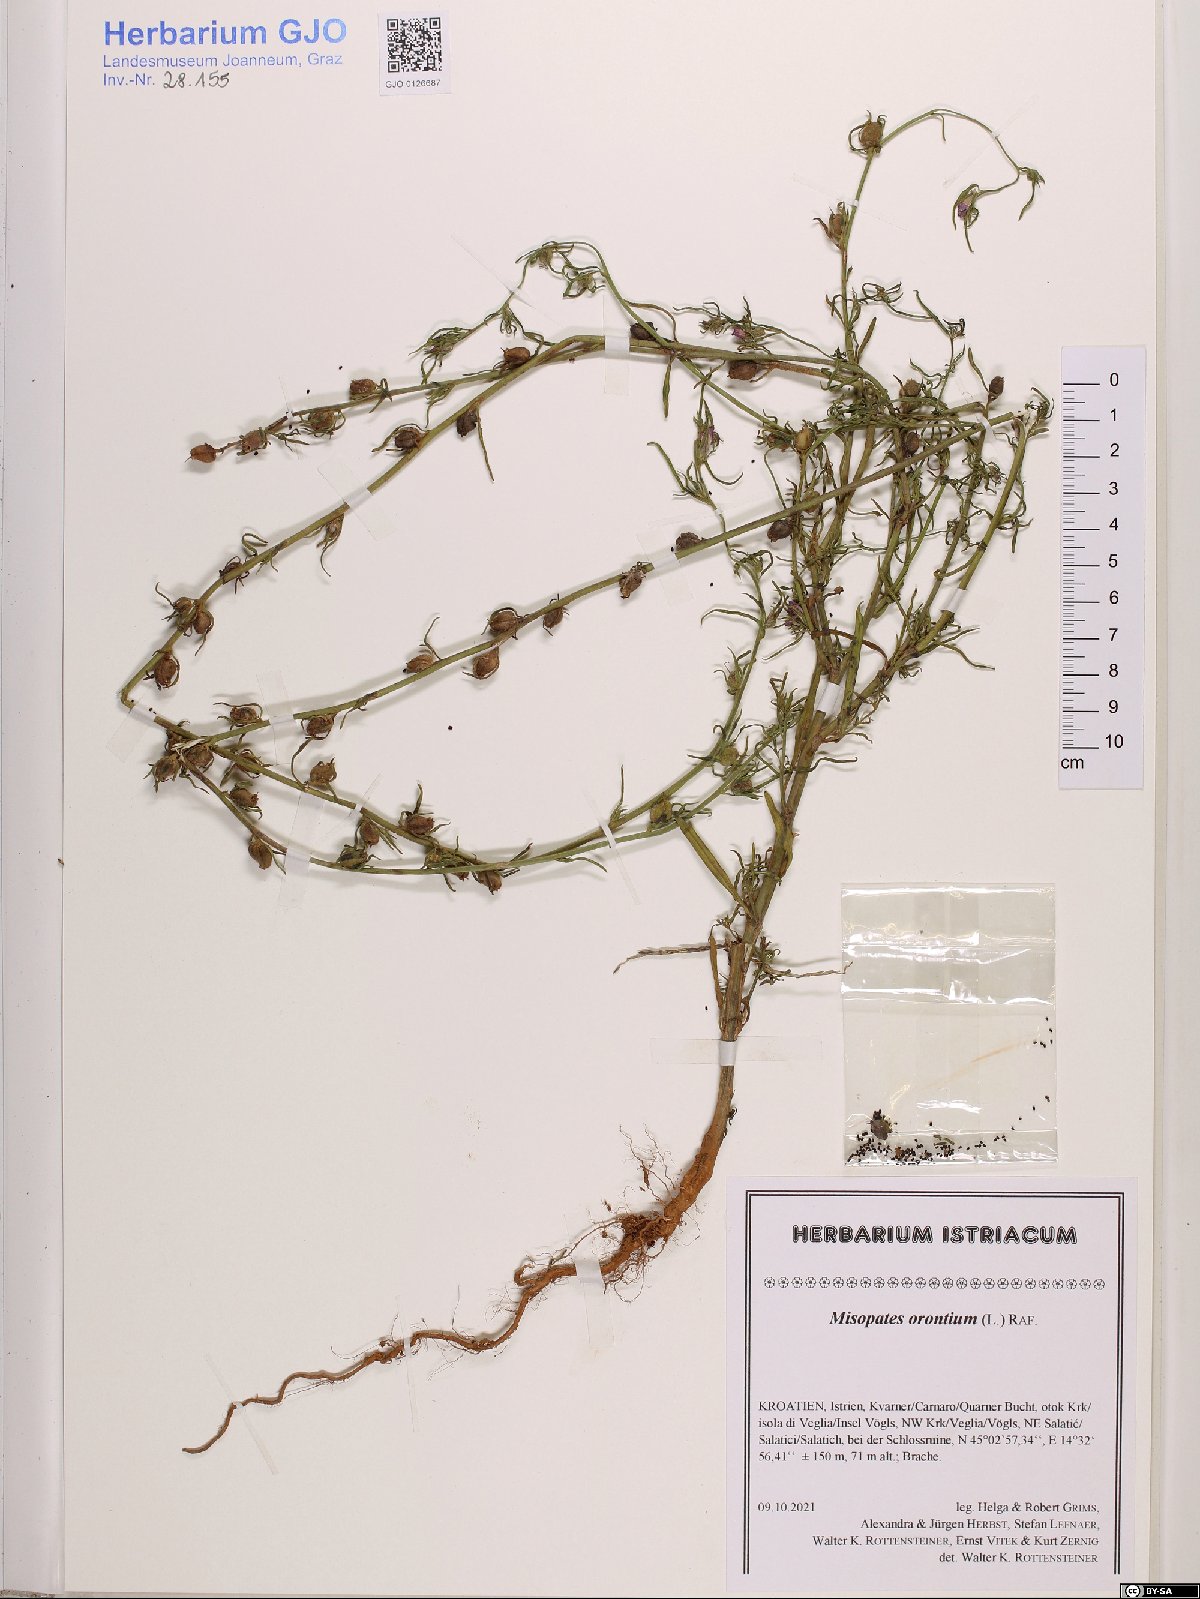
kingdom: Plantae
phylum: Tracheophyta
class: Magnoliopsida
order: Lamiales
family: Plantaginaceae
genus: Misopates
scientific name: Misopates orontium
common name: Weasel's-snout
